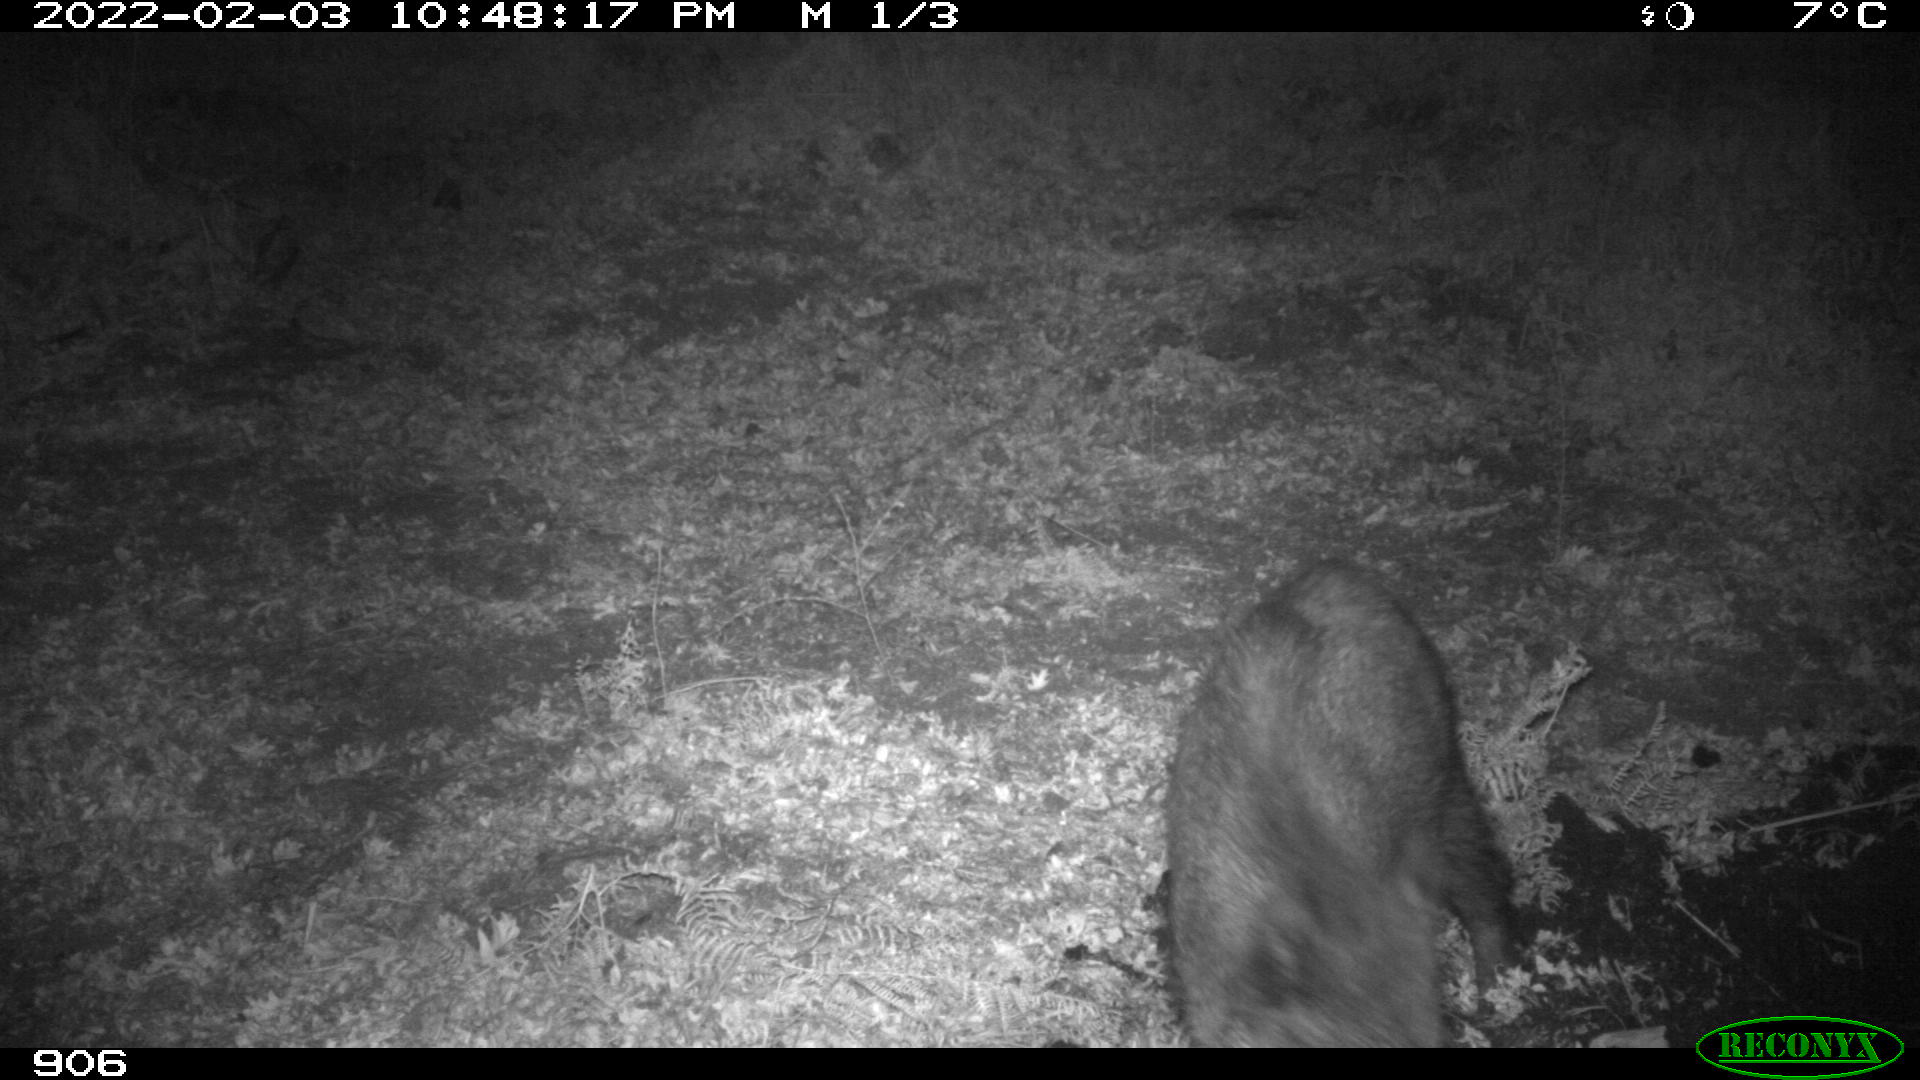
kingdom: Animalia
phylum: Chordata
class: Mammalia
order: Artiodactyla
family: Suidae
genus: Sus
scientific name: Sus scrofa
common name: Wild boar
